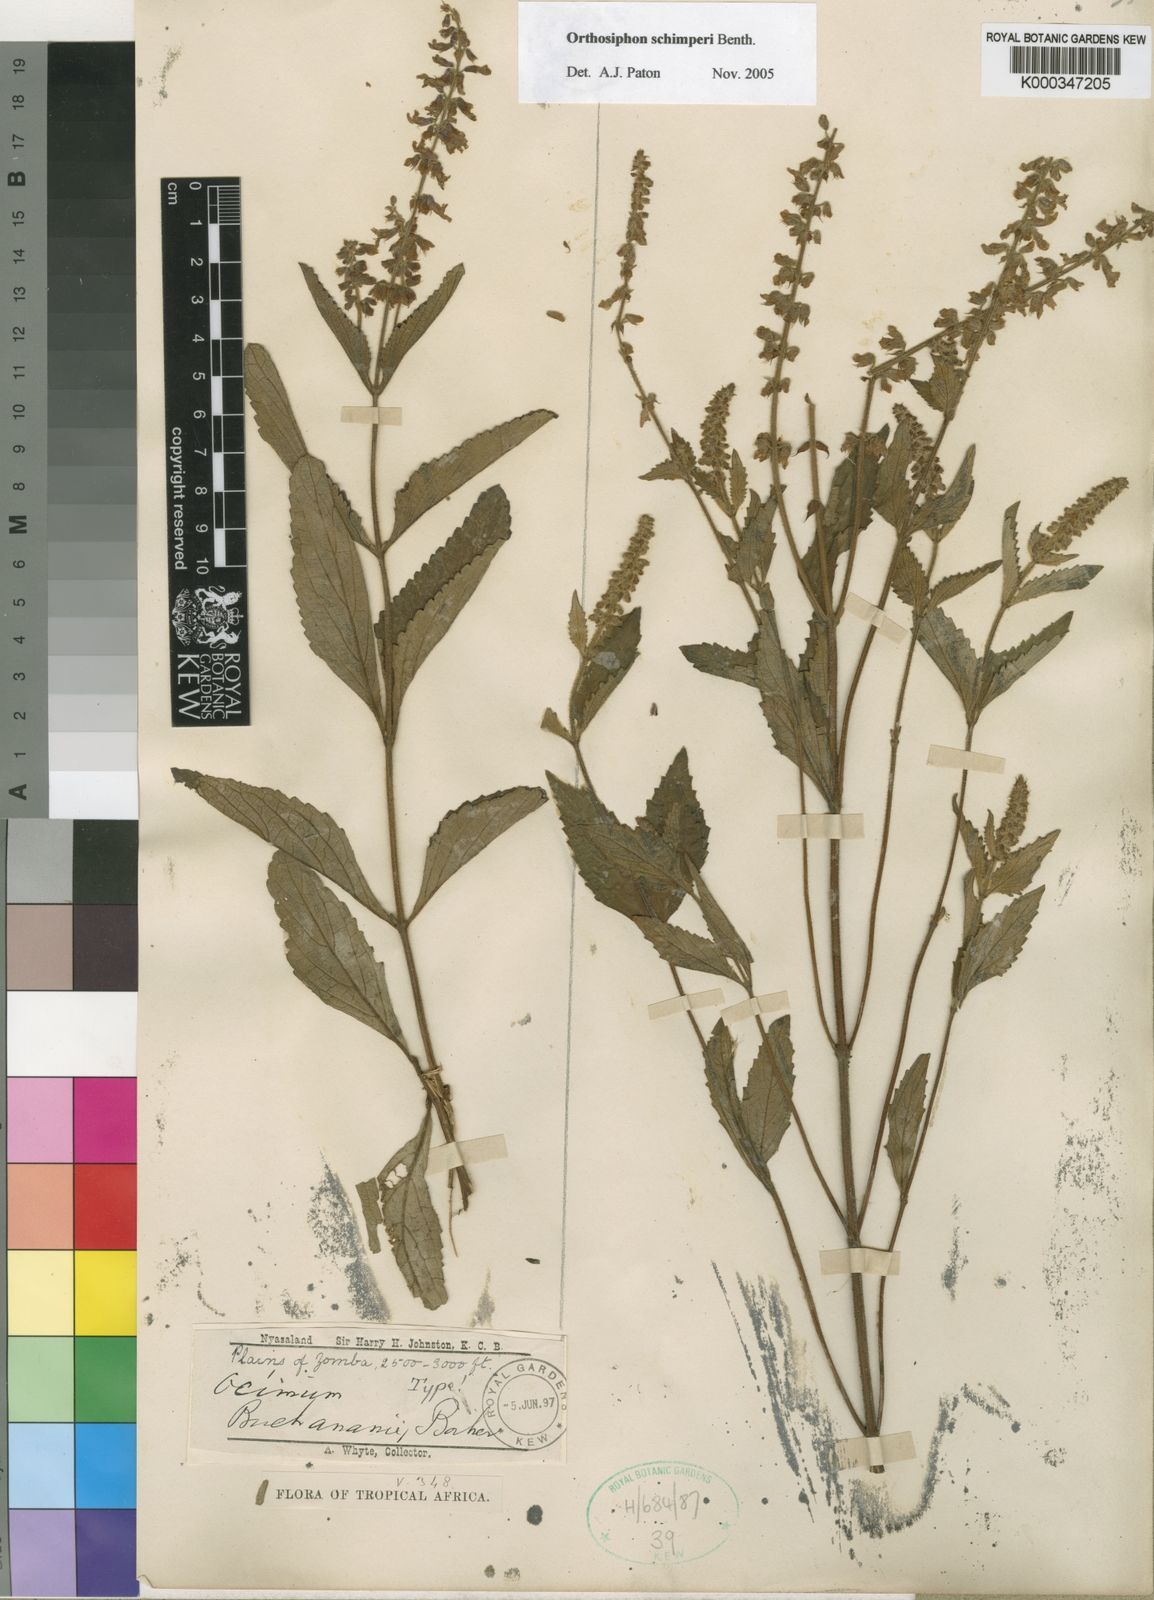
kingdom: Plantae
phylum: Tracheophyta
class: Magnoliopsida
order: Lamiales
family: Lamiaceae
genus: Orthosiphon
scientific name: Orthosiphon schimperi
